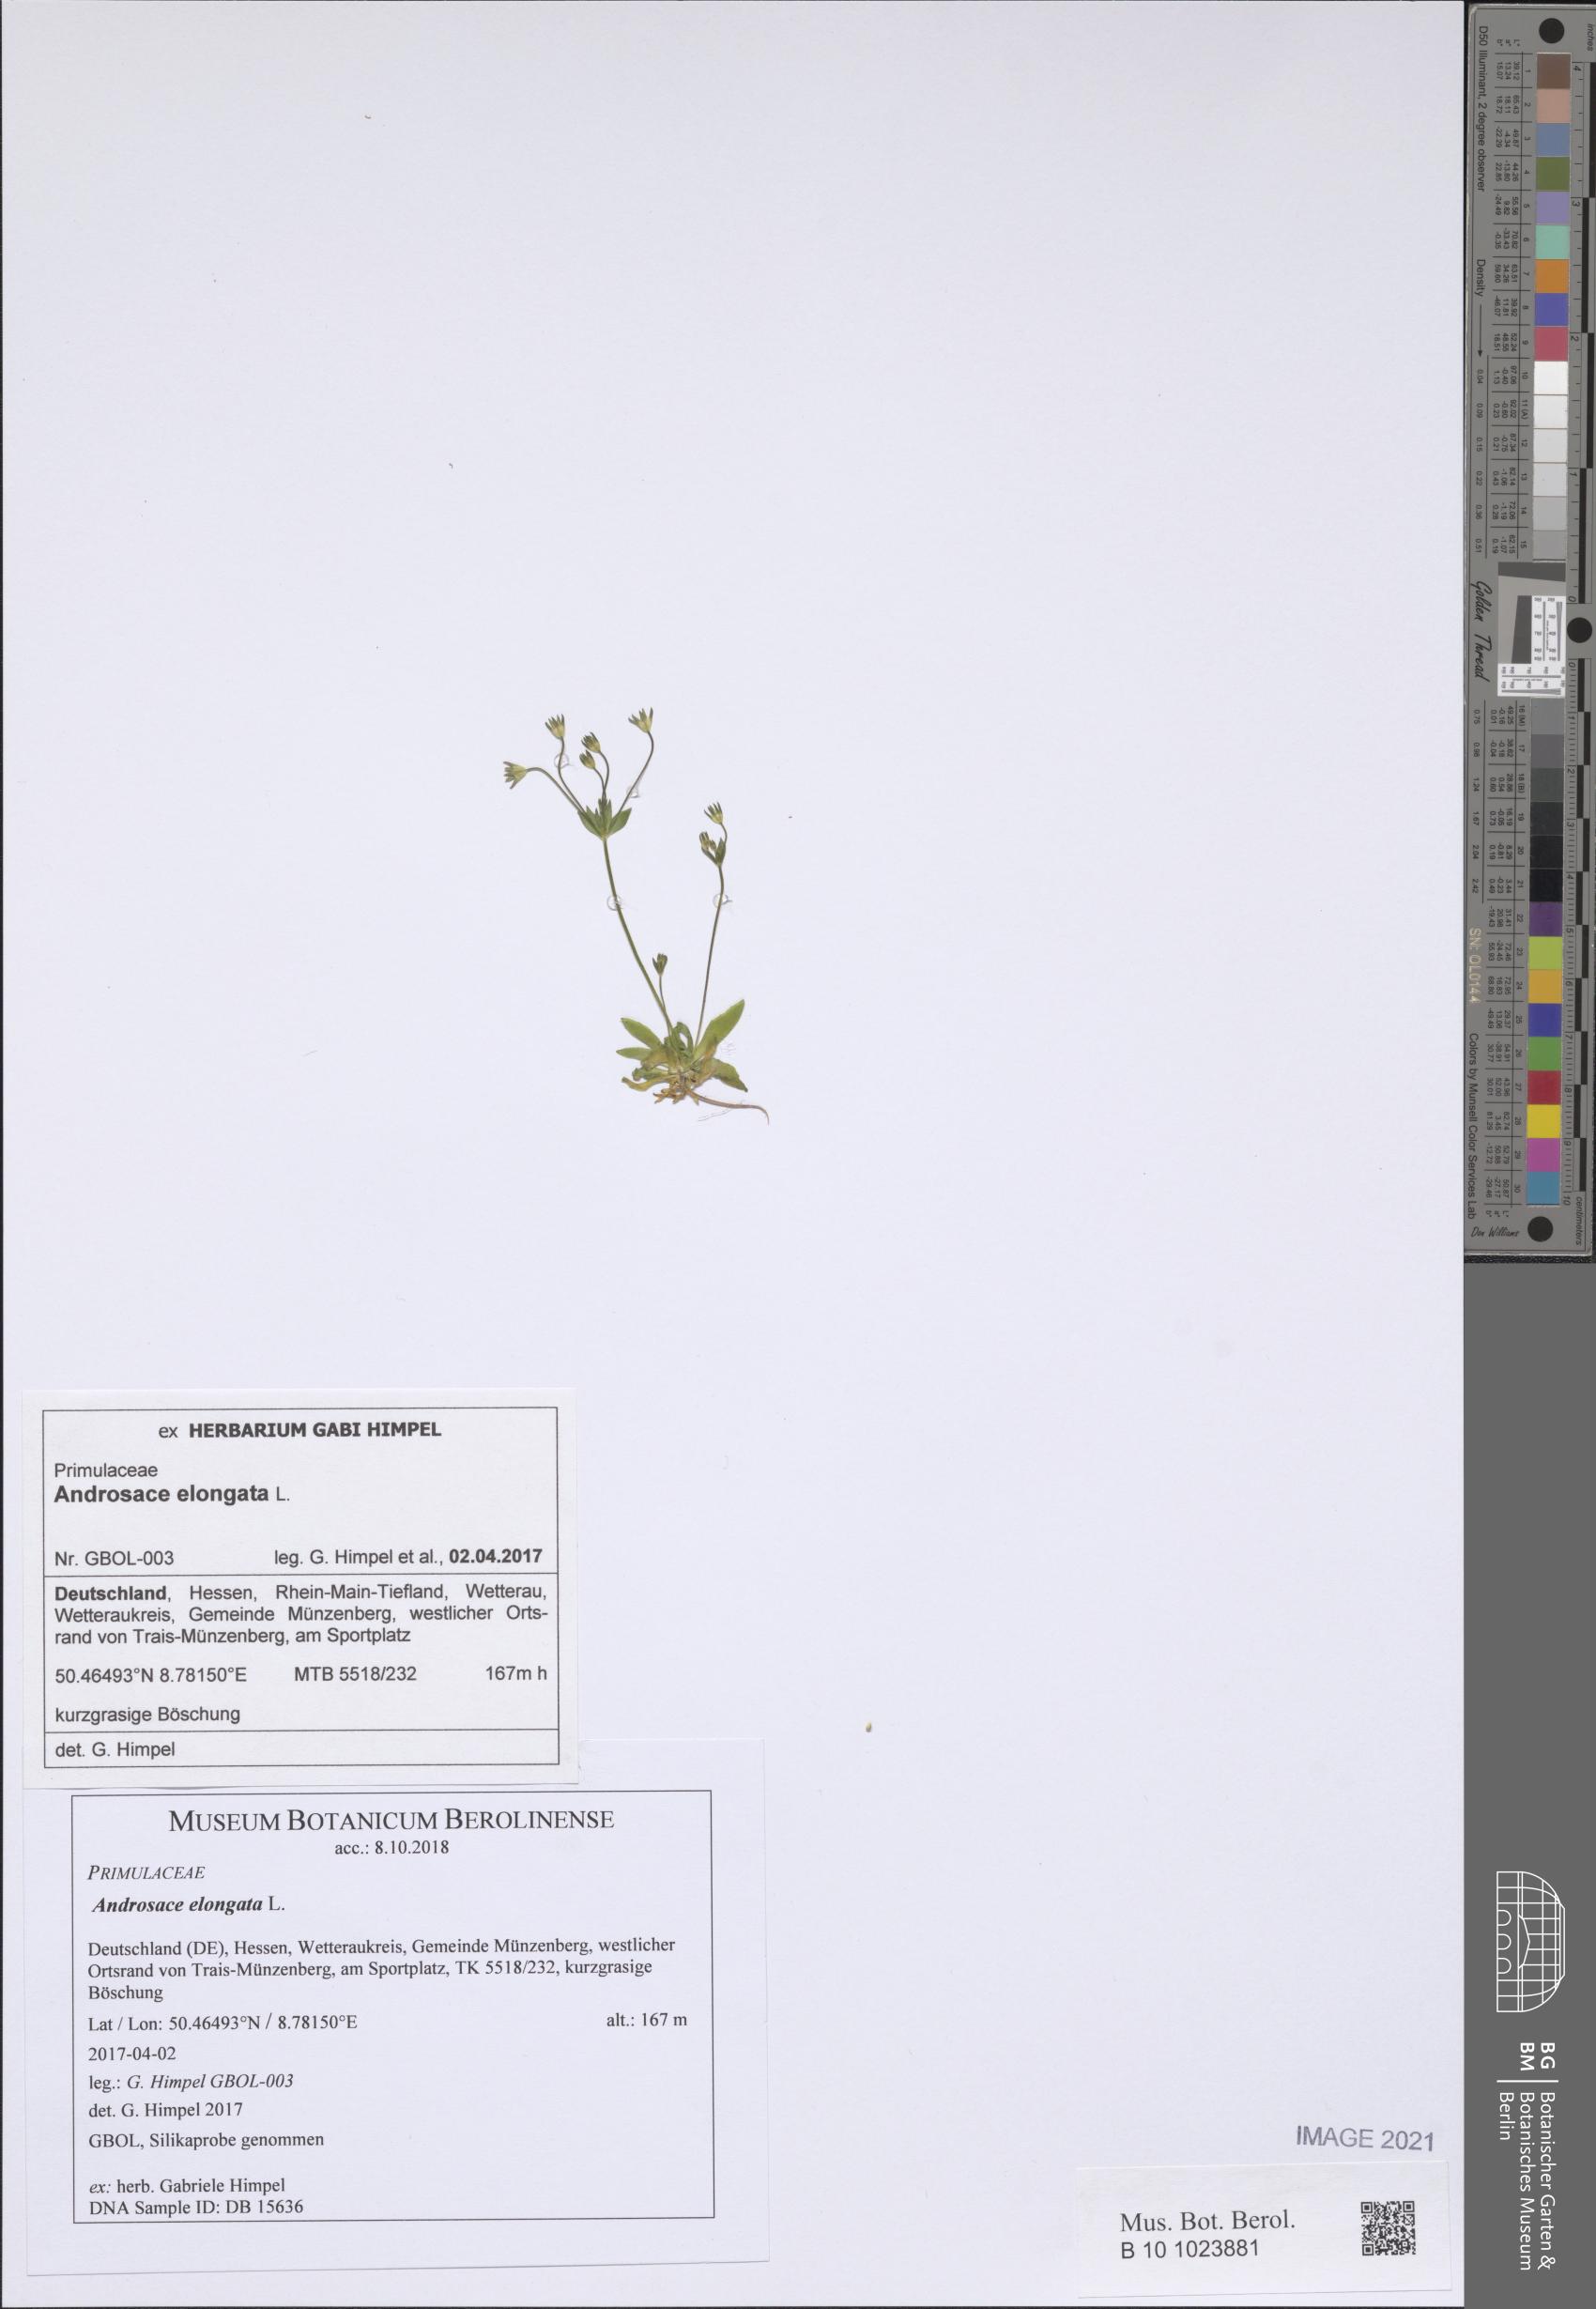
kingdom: Plantae
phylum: Tracheophyta
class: Magnoliopsida
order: Ericales
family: Primulaceae
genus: Androsace
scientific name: Androsace elongata
